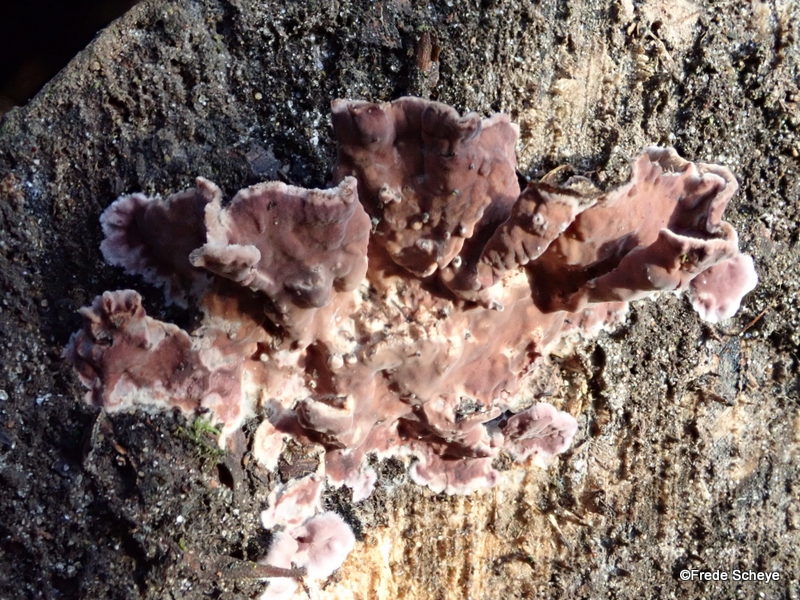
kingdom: Fungi
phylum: Basidiomycota
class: Agaricomycetes
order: Agaricales
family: Cyphellaceae
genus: Chondrostereum
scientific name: Chondrostereum purpureum
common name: purpurlædersvamp
